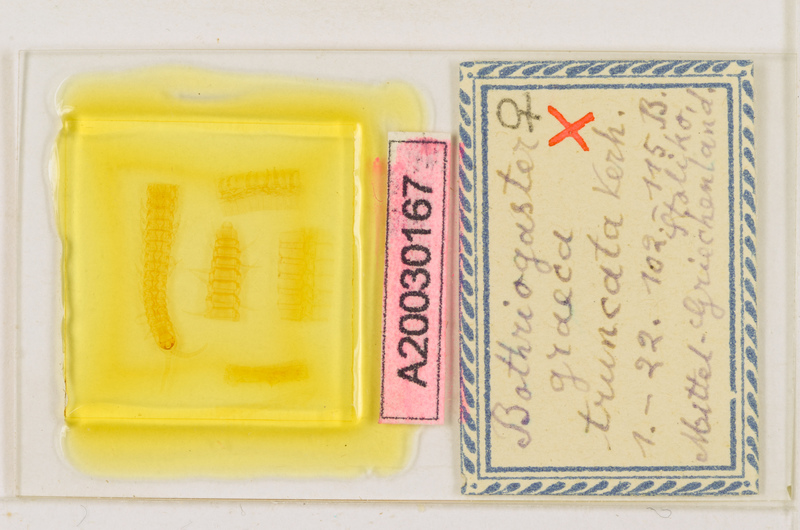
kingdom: Animalia
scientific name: Animalia
